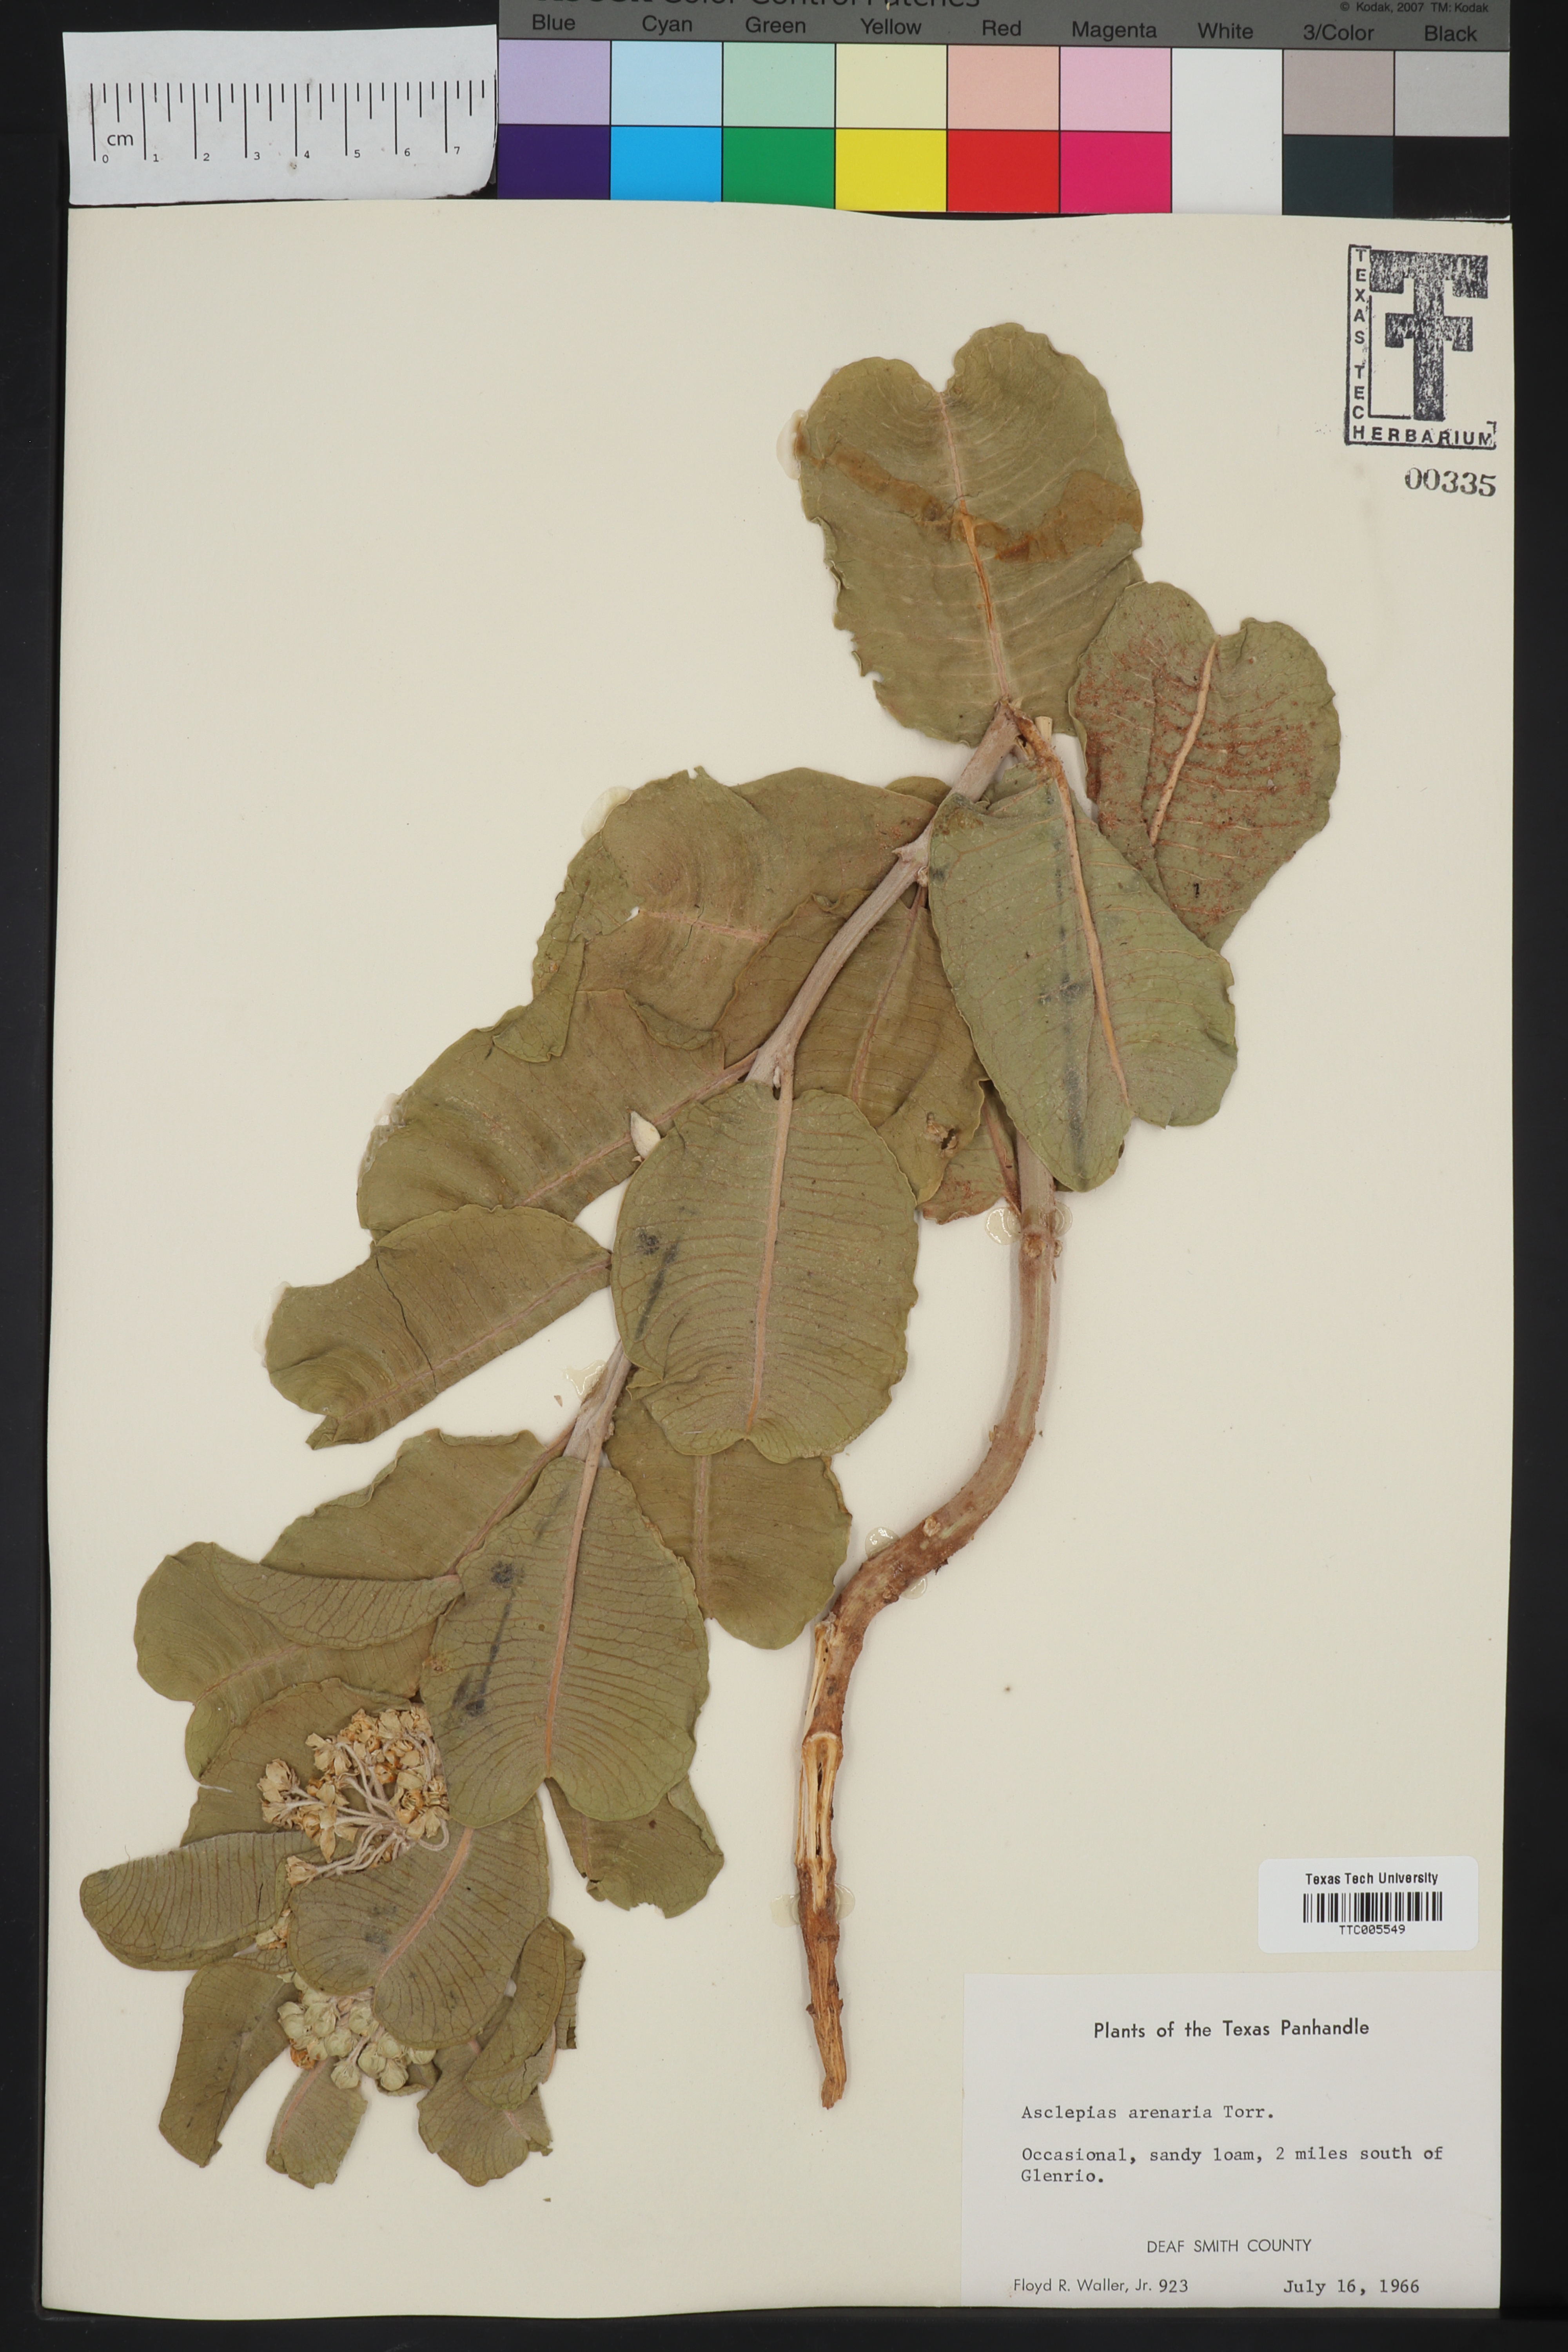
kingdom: Plantae
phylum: Tracheophyta
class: Magnoliopsida
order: Gentianales
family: Apocynaceae
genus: Asclepias
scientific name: Asclepias arenaria
